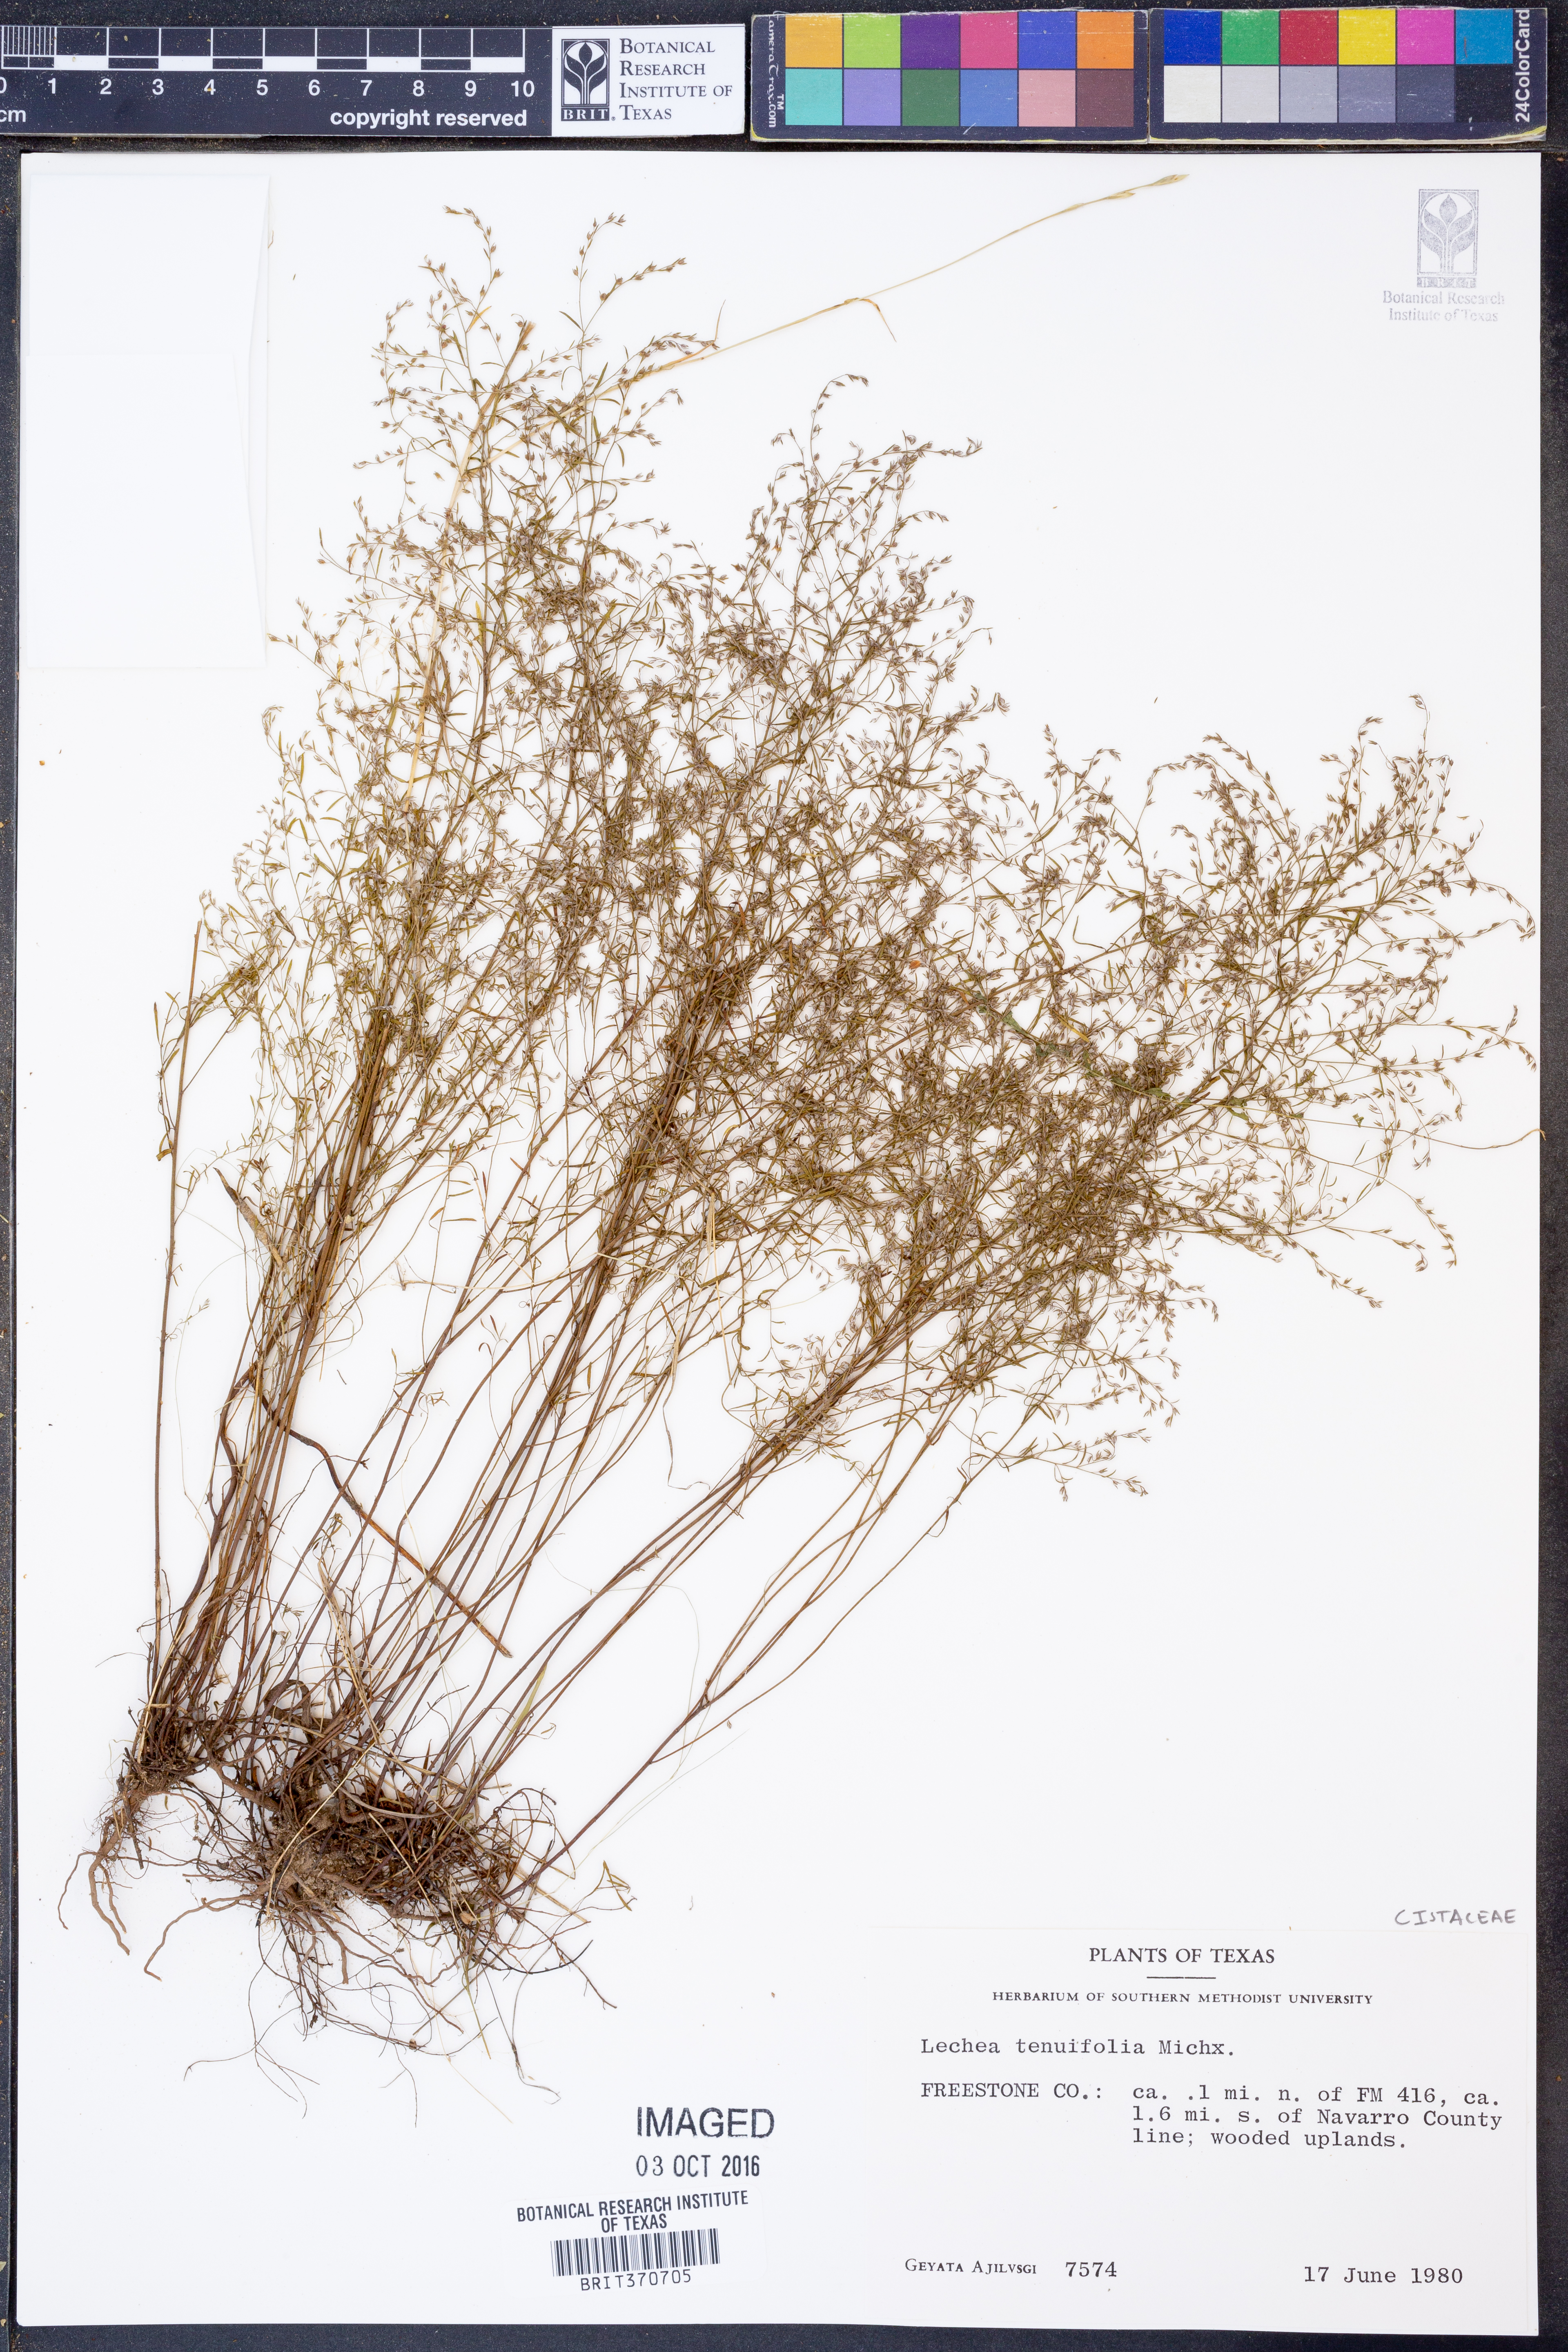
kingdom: Plantae
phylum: Tracheophyta
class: Magnoliopsida
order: Malvales
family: Cistaceae
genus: Lechea
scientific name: Lechea tenuifolia
